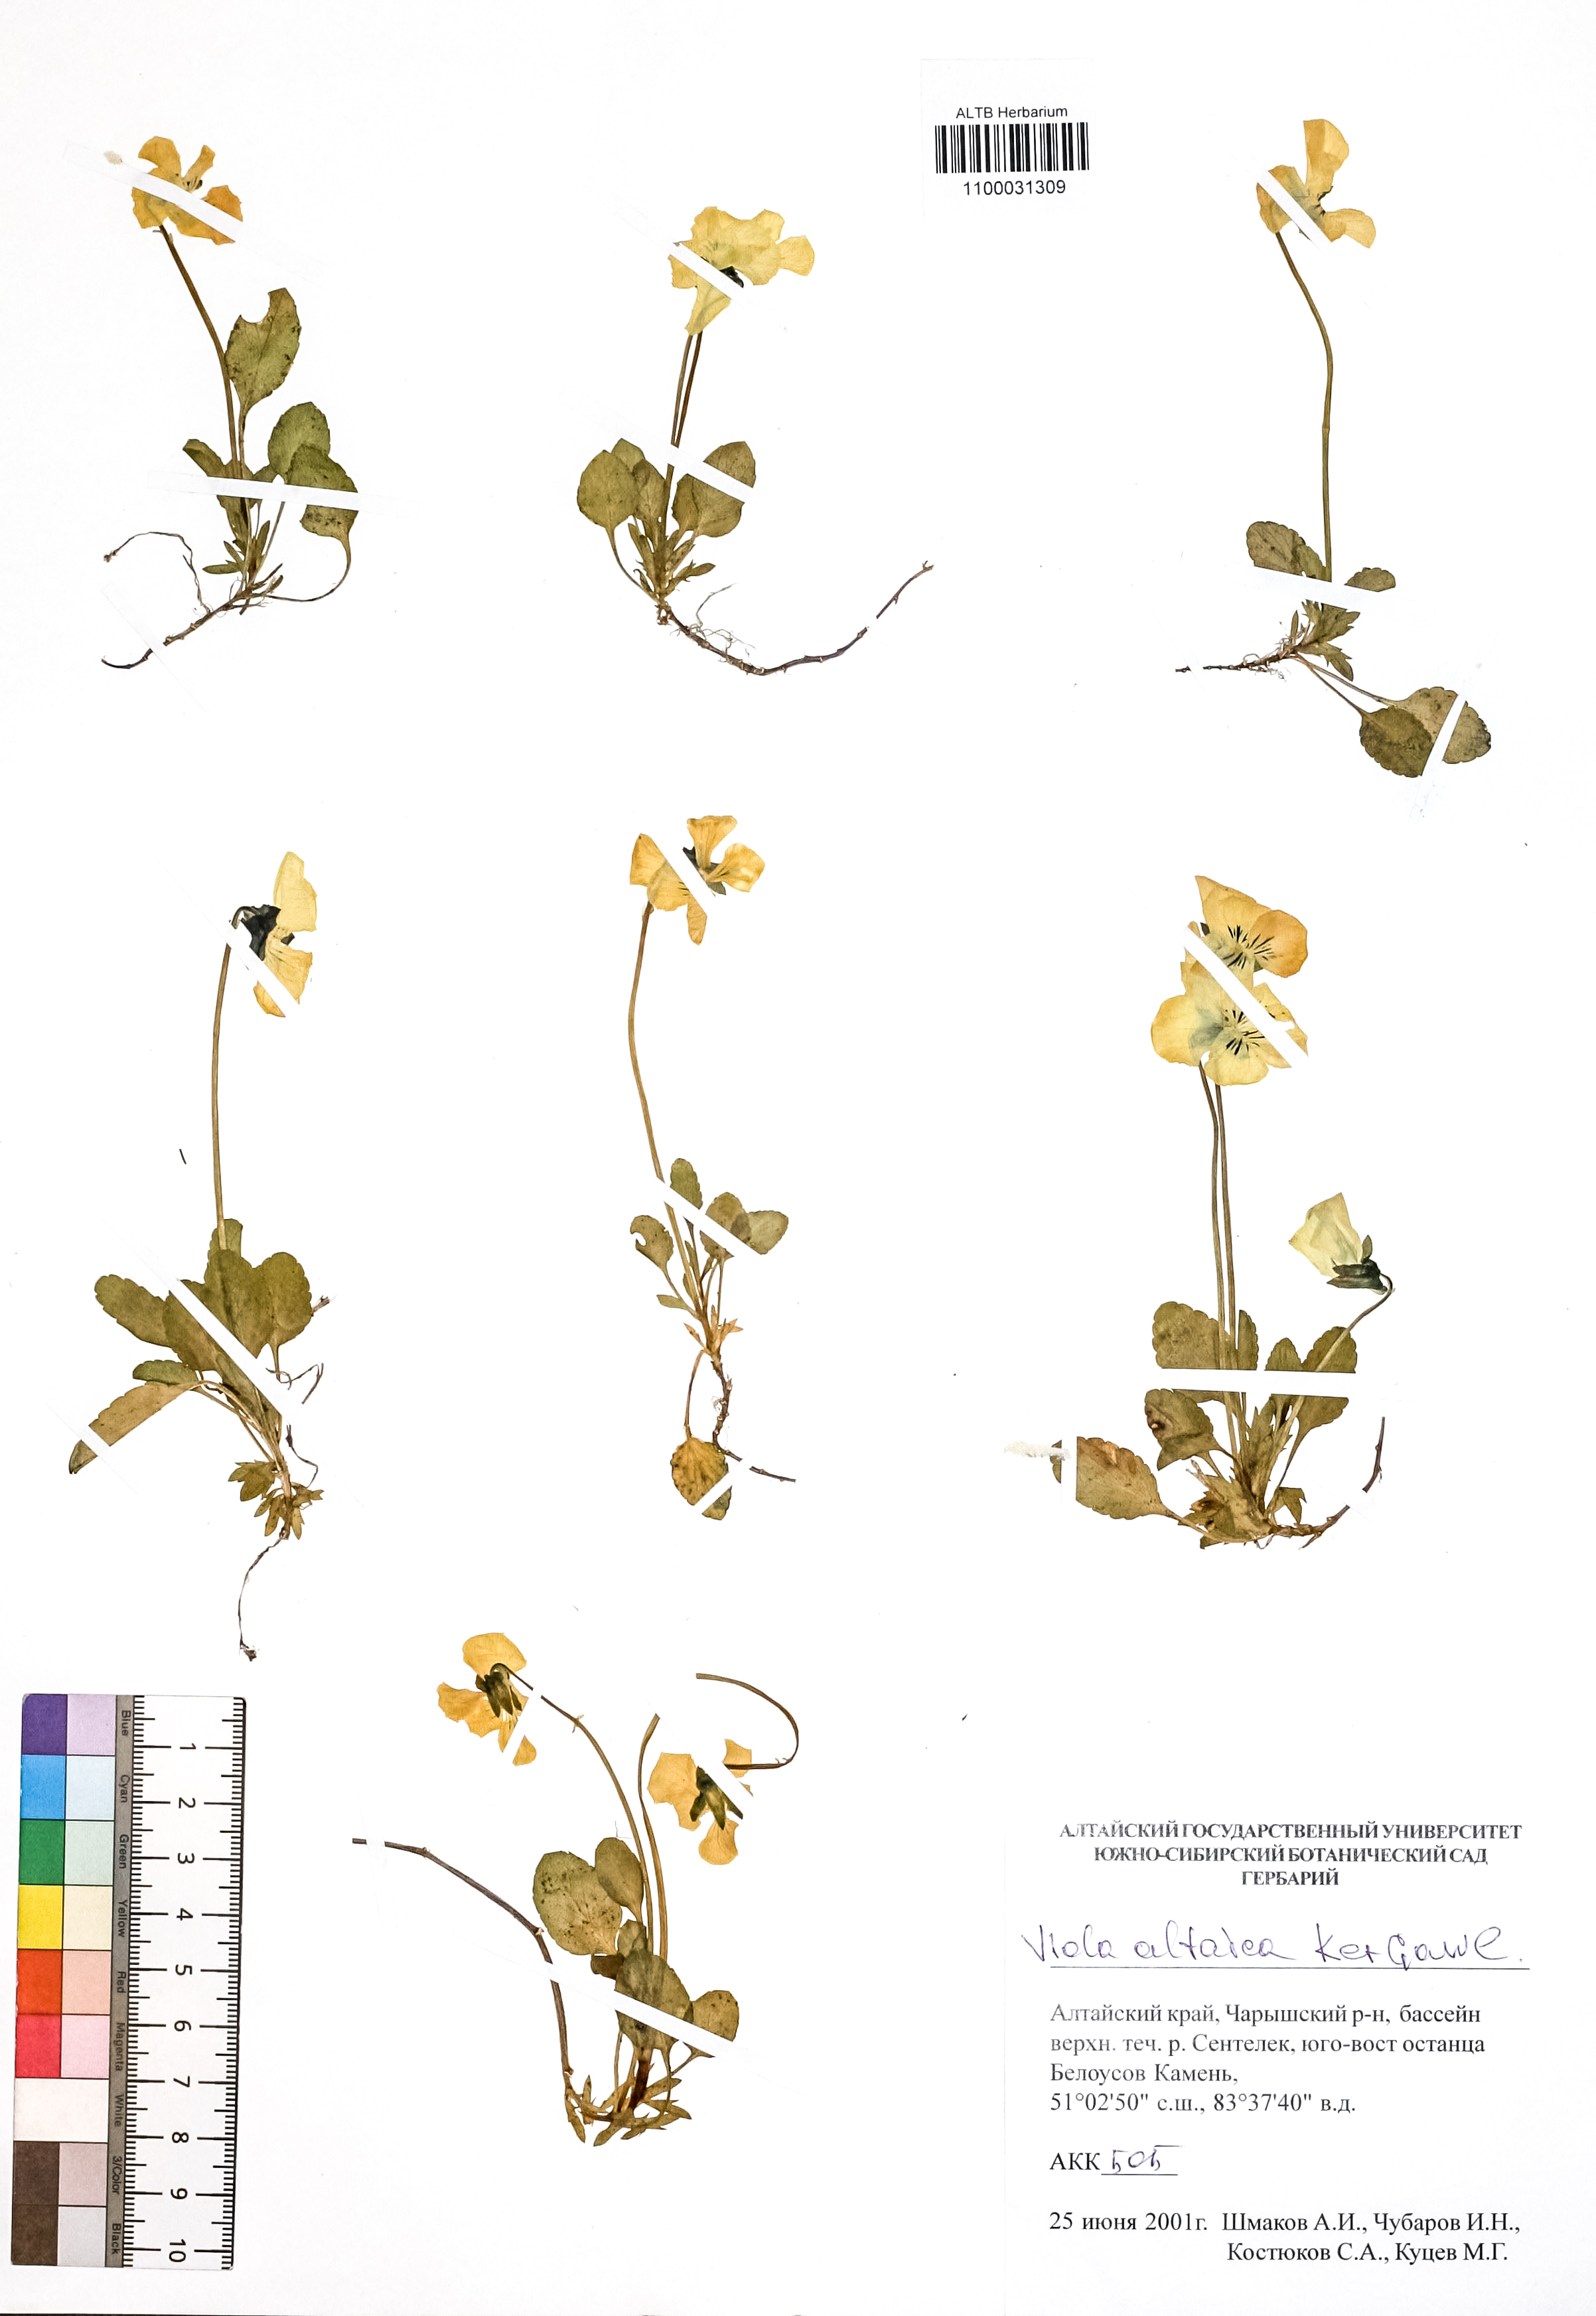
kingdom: Plantae
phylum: Tracheophyta
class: Magnoliopsida
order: Malpighiales
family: Violaceae
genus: Viola
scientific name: Viola altaica
